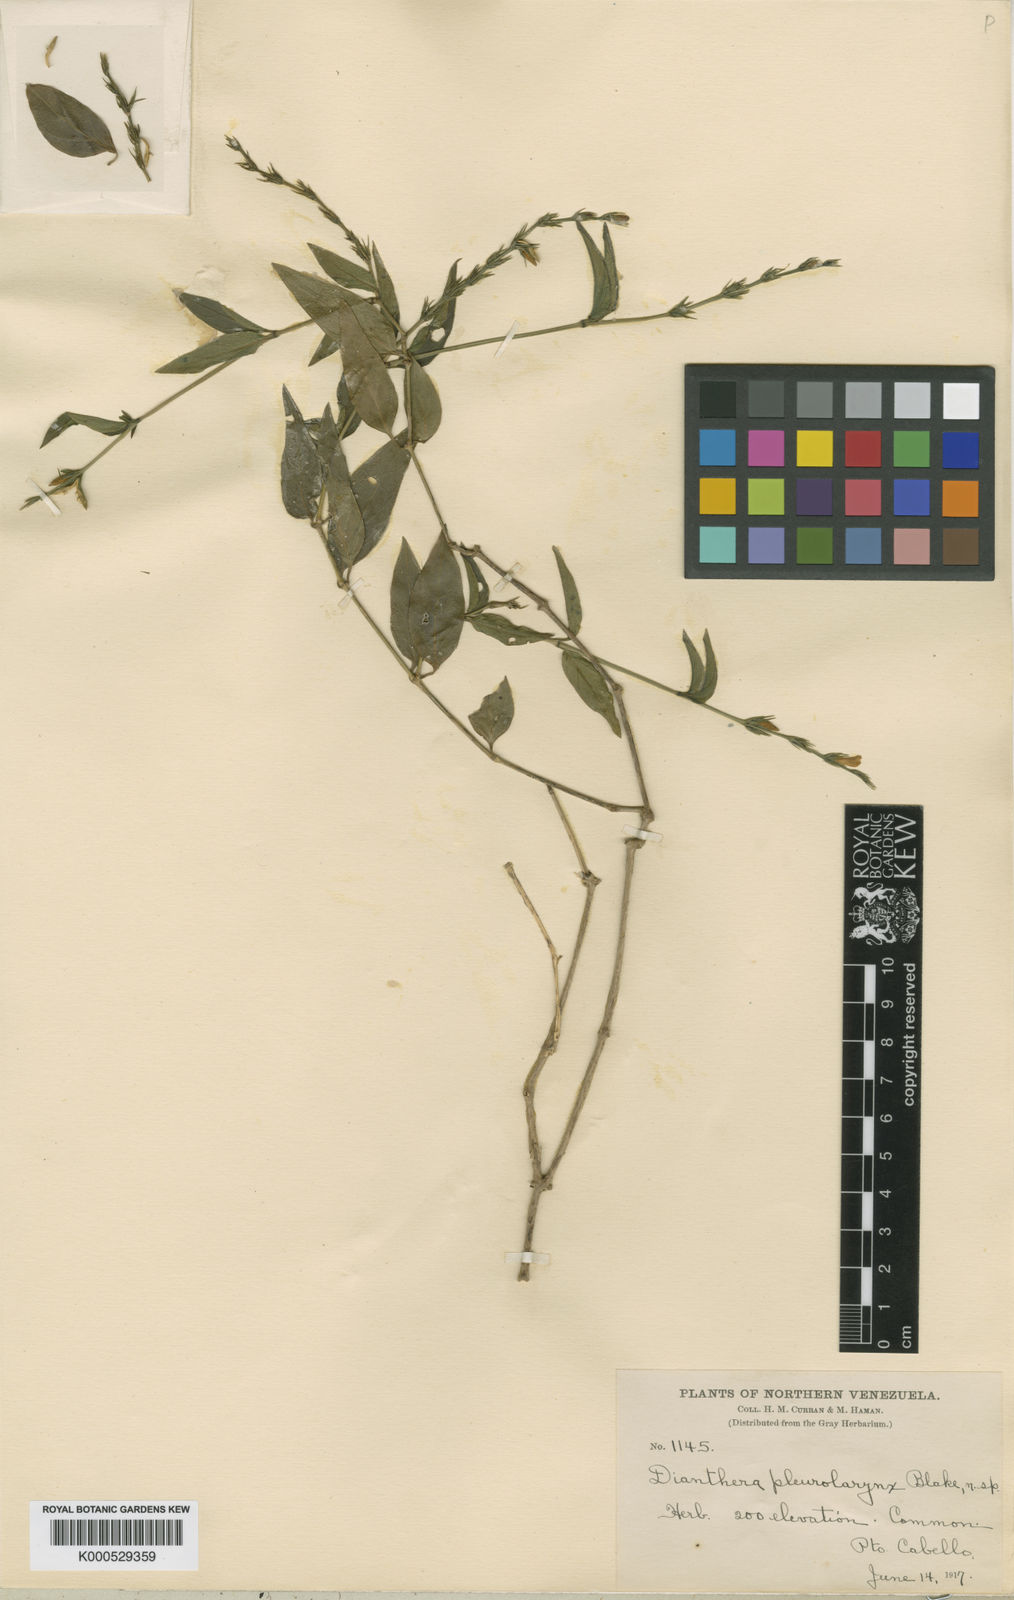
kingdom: Plantae
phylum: Tracheophyta
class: Magnoliopsida
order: Lamiales
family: Acanthaceae
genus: Justicia
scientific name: Justicia
